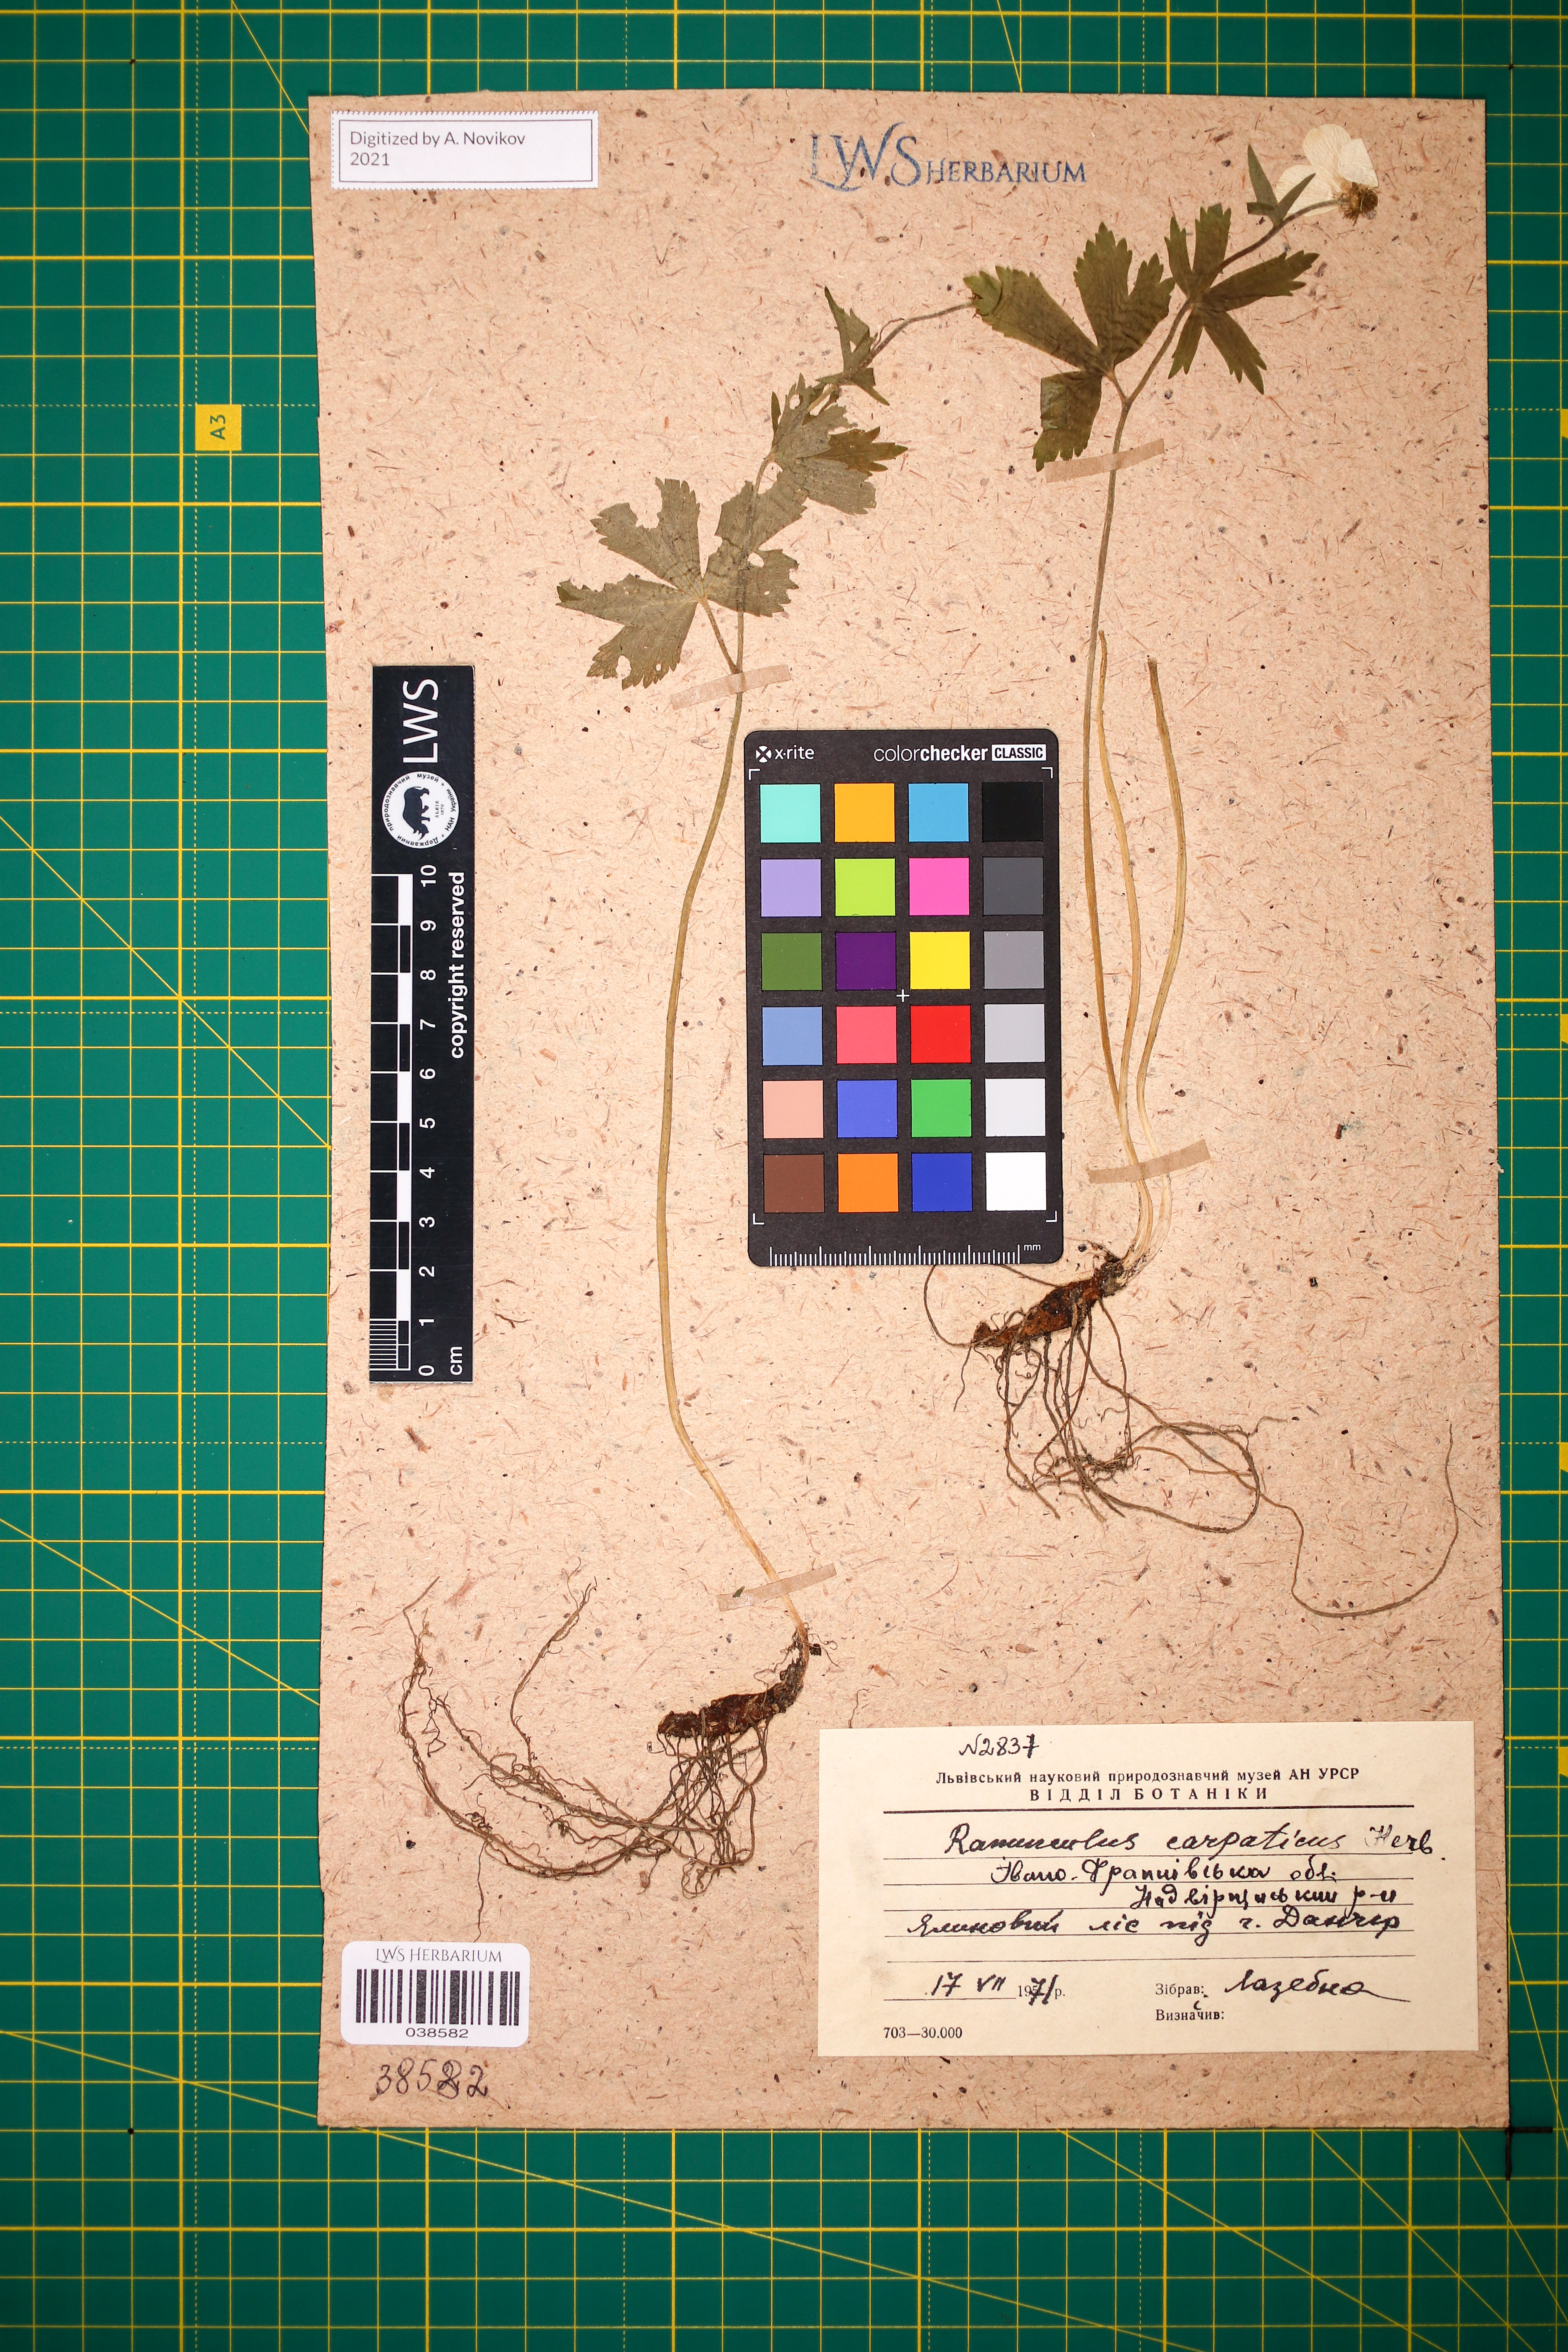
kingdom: Plantae
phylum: Tracheophyta
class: Magnoliopsida
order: Ranunculales
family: Ranunculaceae
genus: Ranunculus
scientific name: Ranunculus carpaticus
